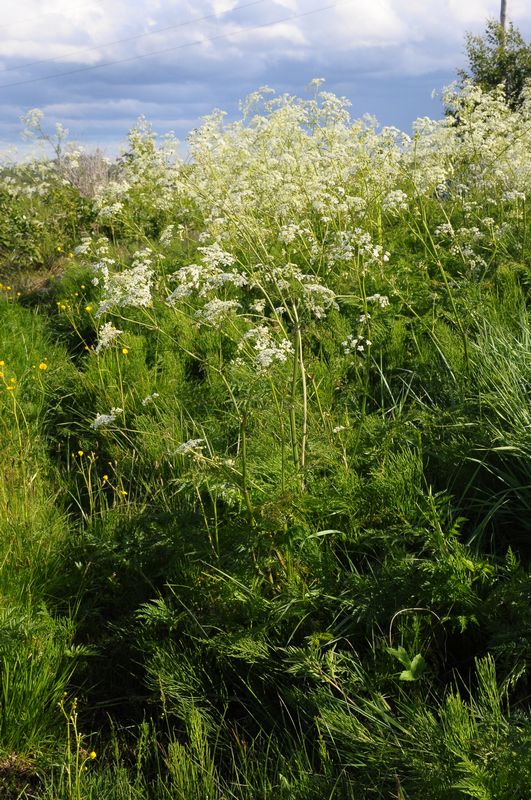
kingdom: Plantae
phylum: Tracheophyta
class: Magnoliopsida
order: Apiales
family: Apiaceae
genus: Anthriscus
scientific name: Anthriscus sylvestris
